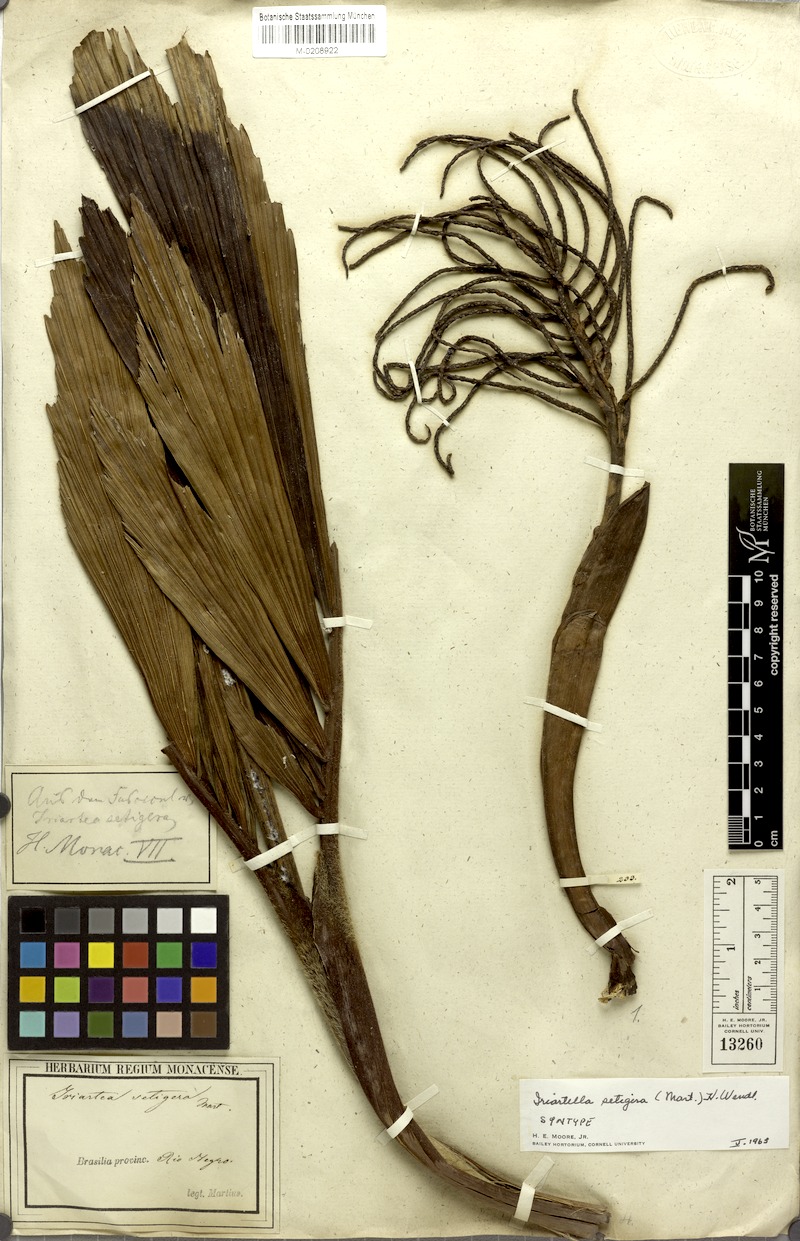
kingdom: Plantae
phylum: Tracheophyta
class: Liliopsida
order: Arecales
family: Arecaceae
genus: Iriartella
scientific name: Iriartella setigera
